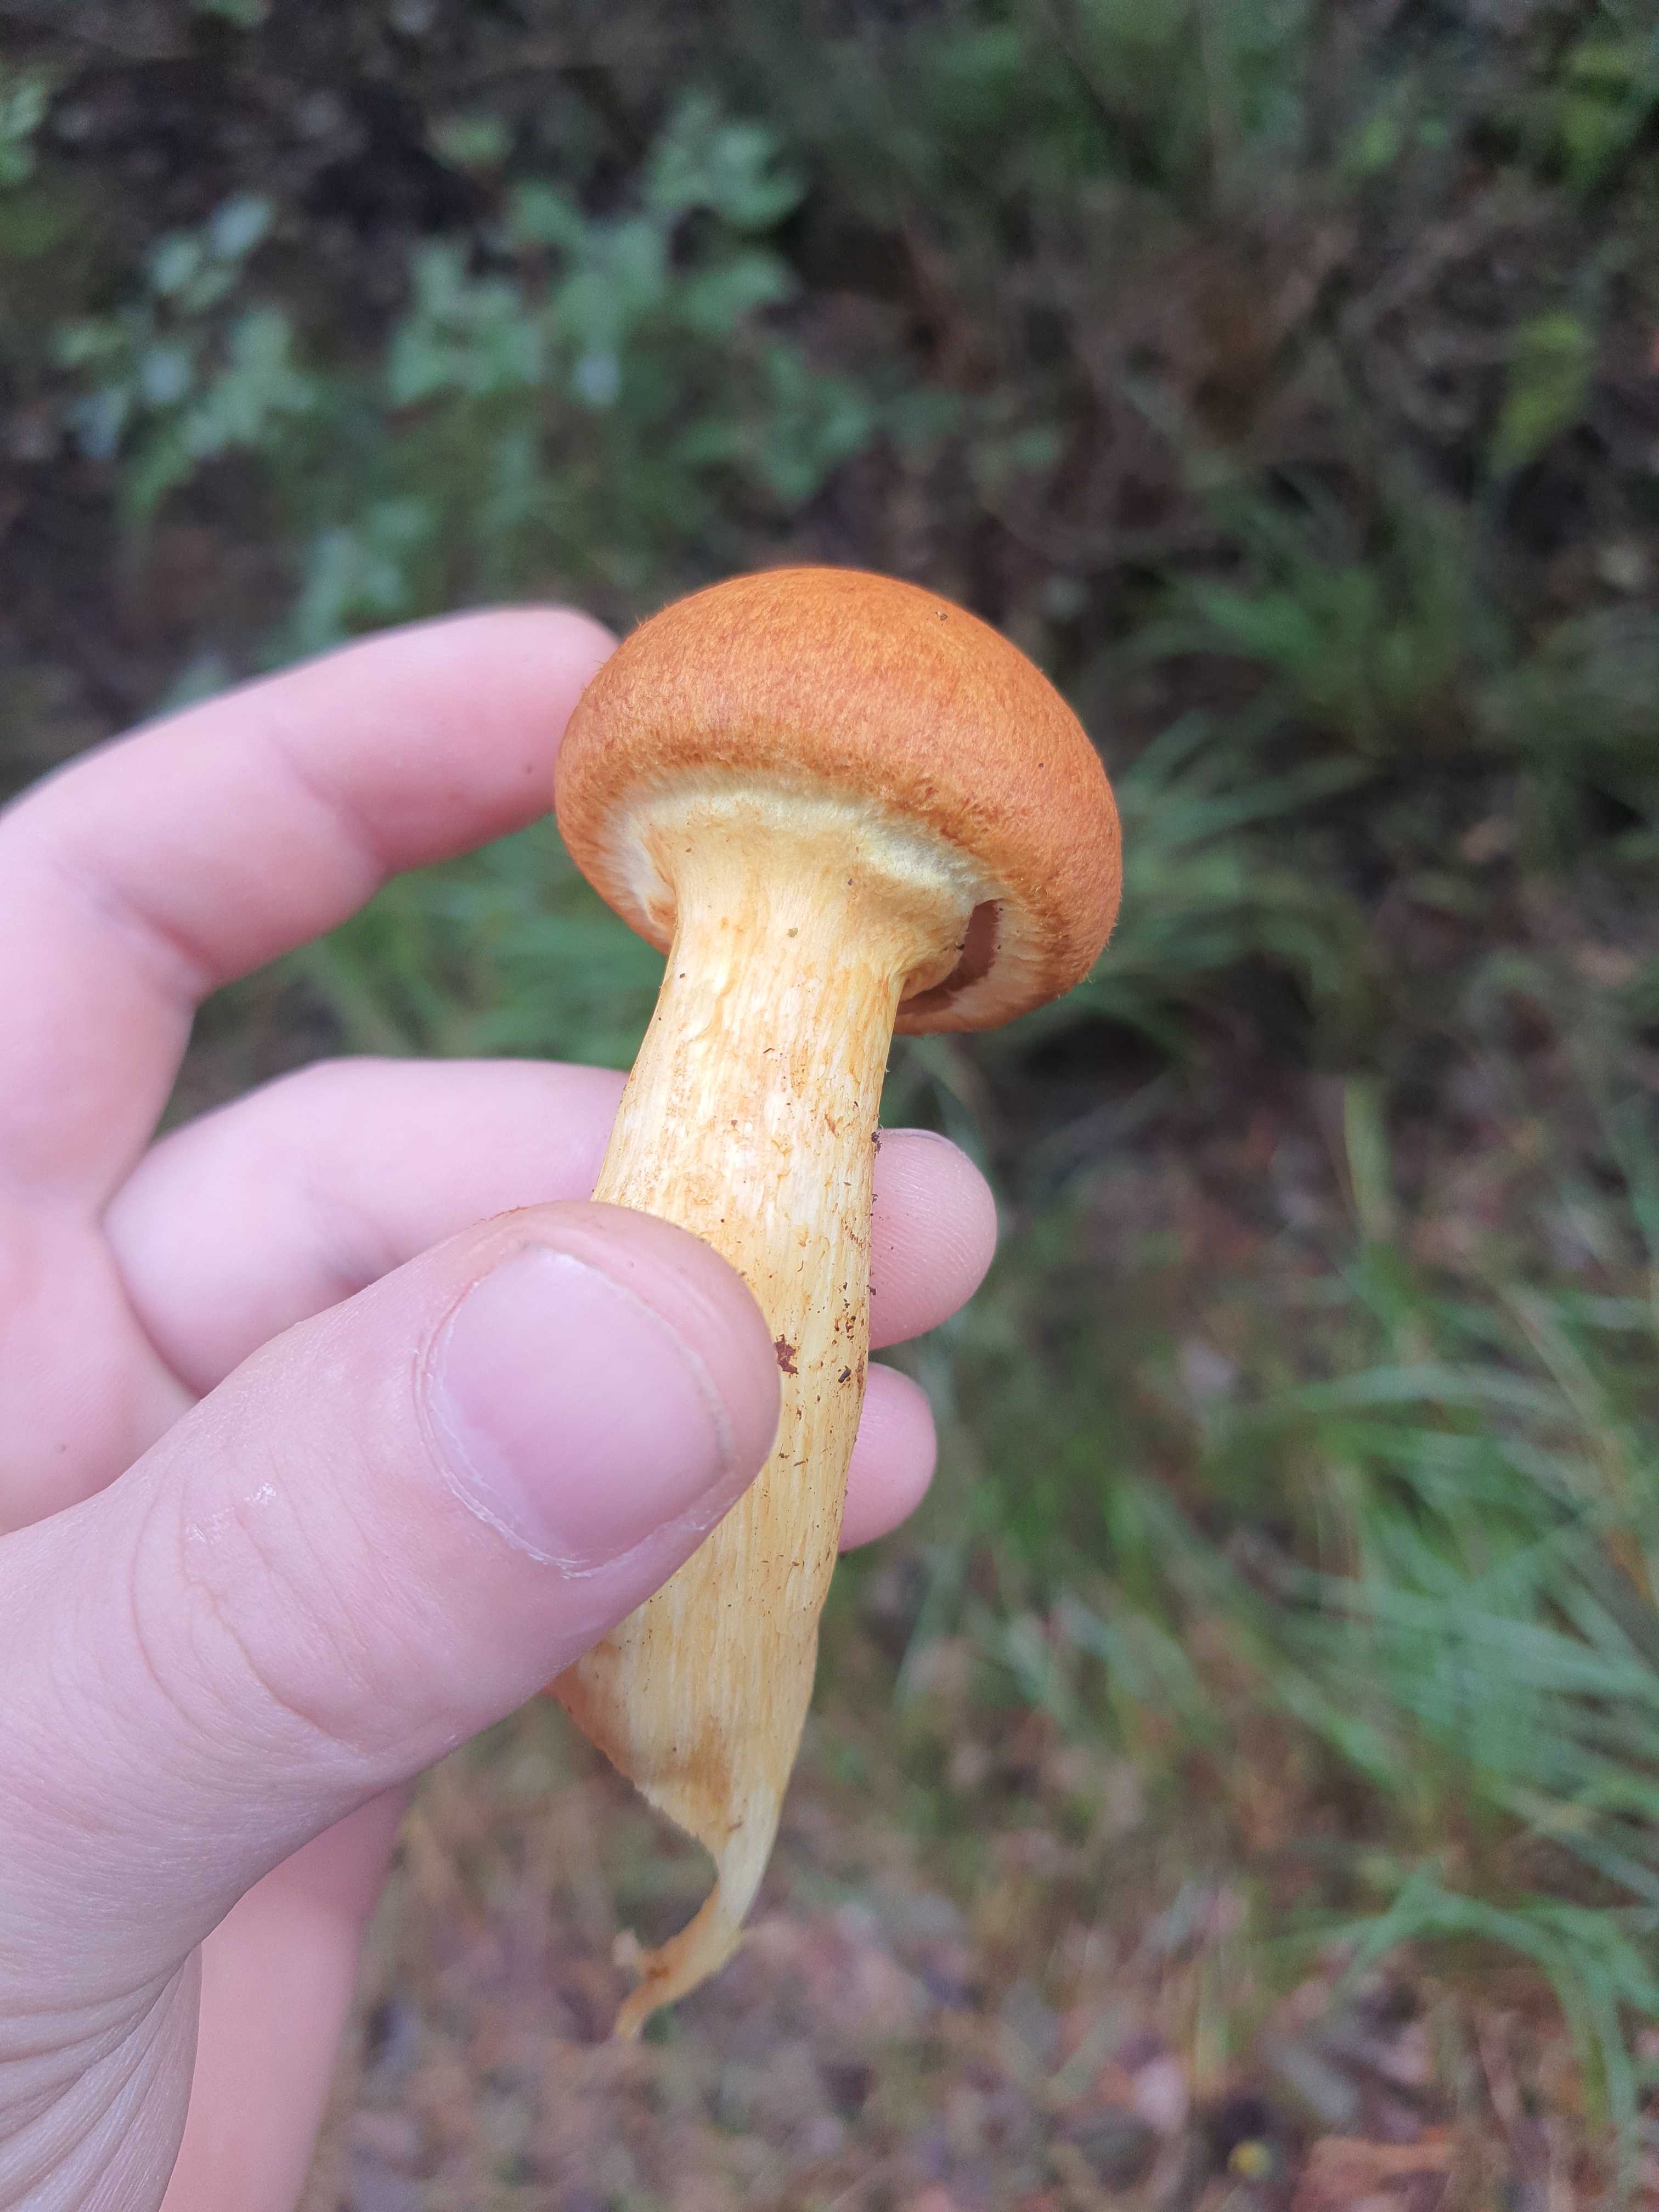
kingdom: Fungi
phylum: Basidiomycota
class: Agaricomycetes
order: Agaricales
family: Hymenogastraceae
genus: Gymnopilus
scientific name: Gymnopilus spectabilis
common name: fibret flammehat
